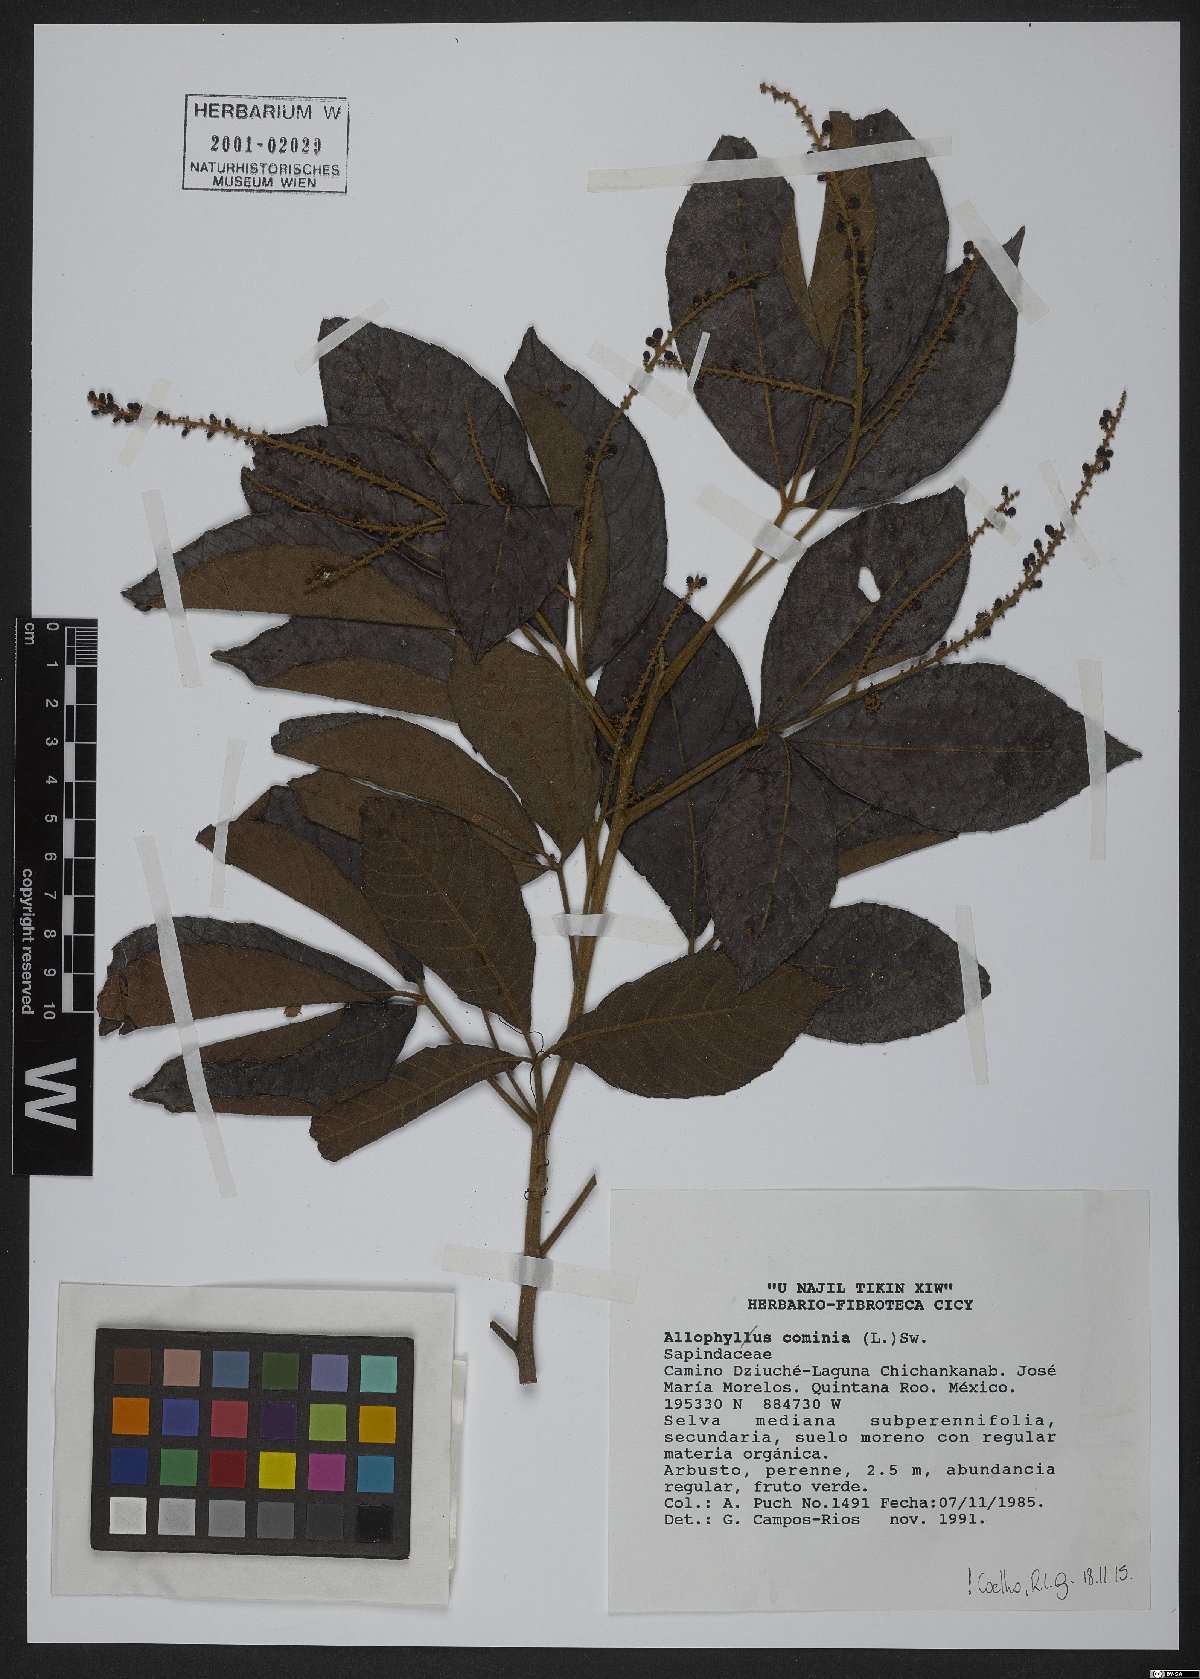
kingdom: Plantae
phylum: Tracheophyta
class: Magnoliopsida
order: Sapindales
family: Sapindaceae
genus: Allophylus
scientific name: Allophylus cominia
